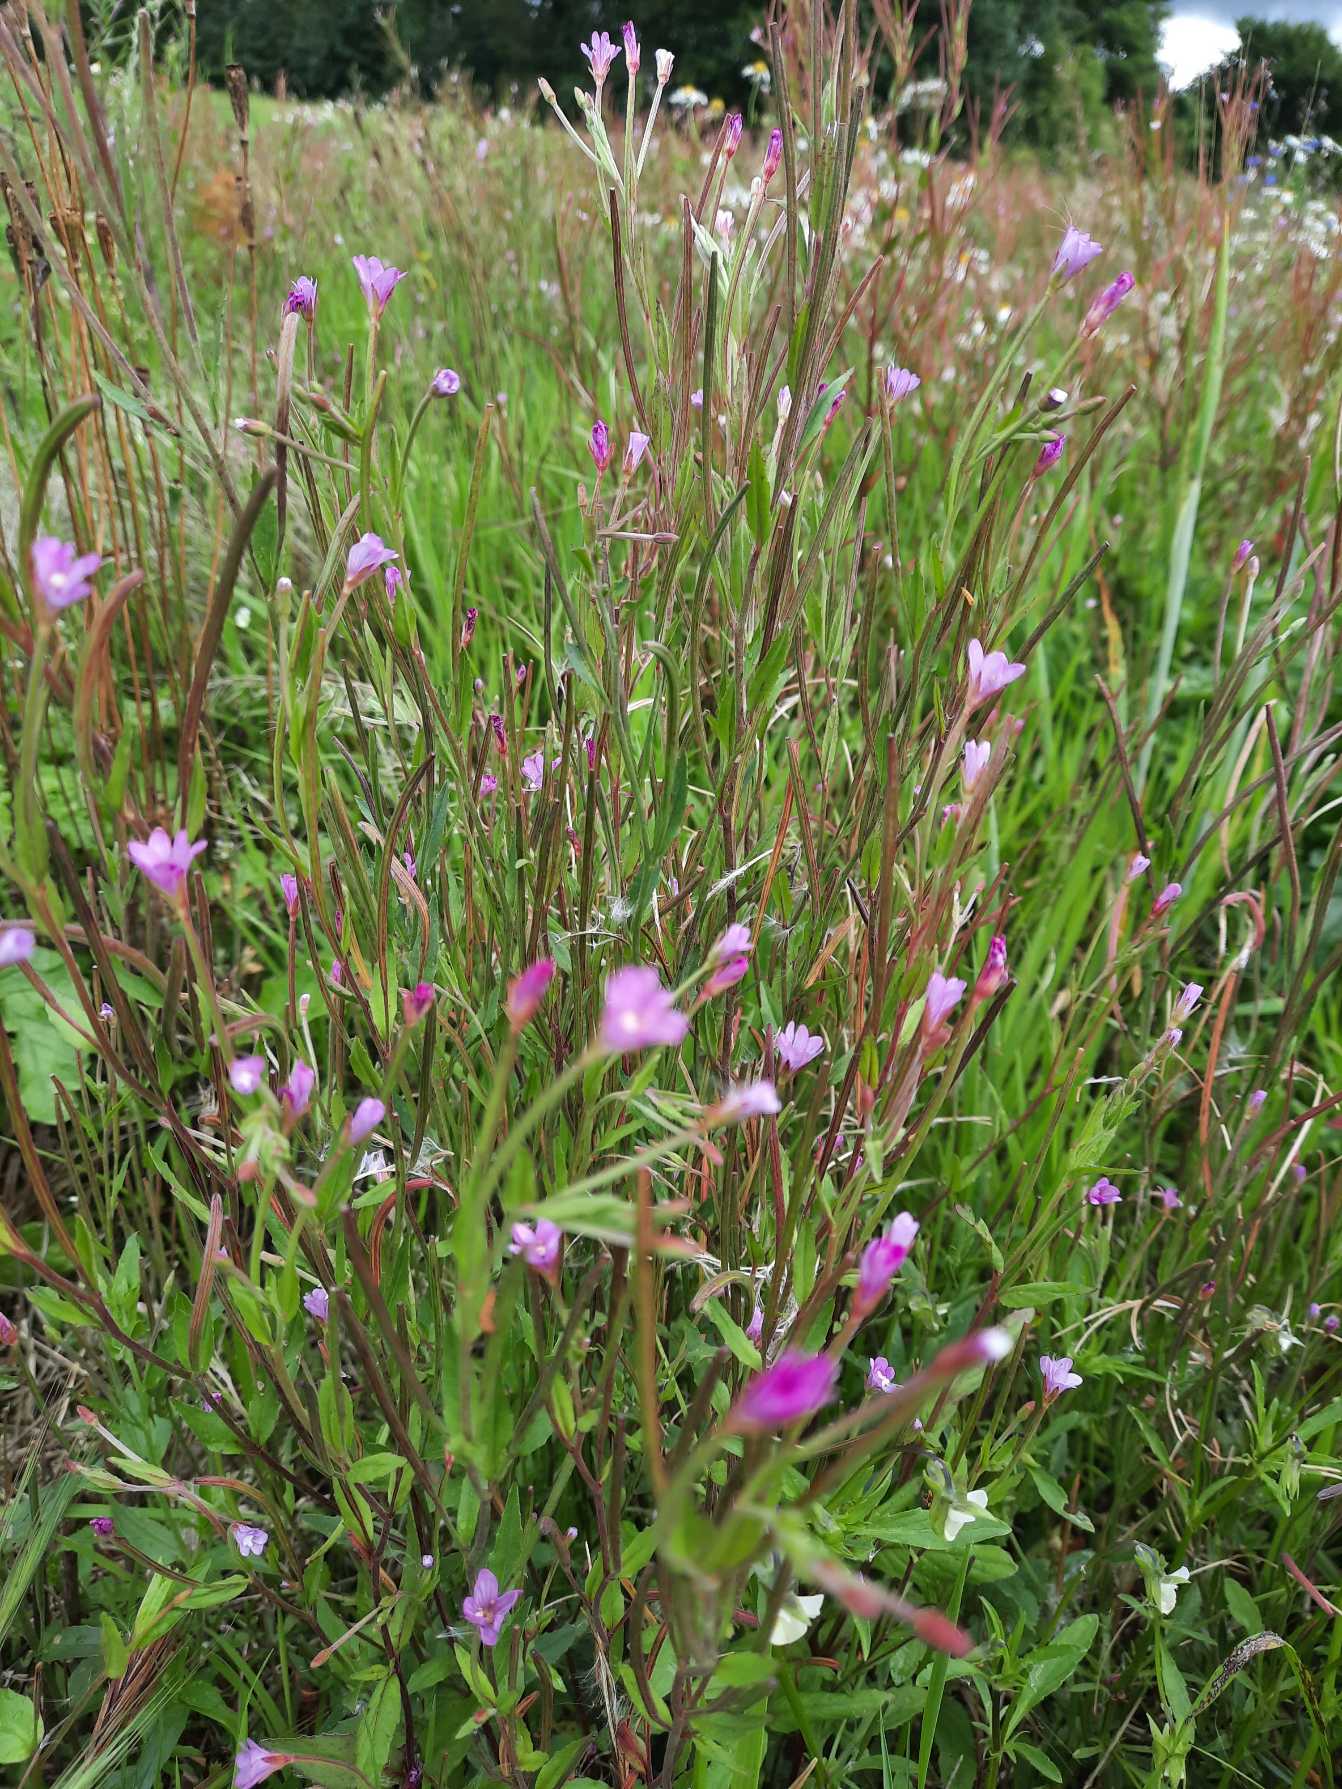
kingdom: Plantae
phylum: Tracheophyta
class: Magnoliopsida
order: Myrtales
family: Onagraceae
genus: Epilobium
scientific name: Epilobium
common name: Dueurtslægten
